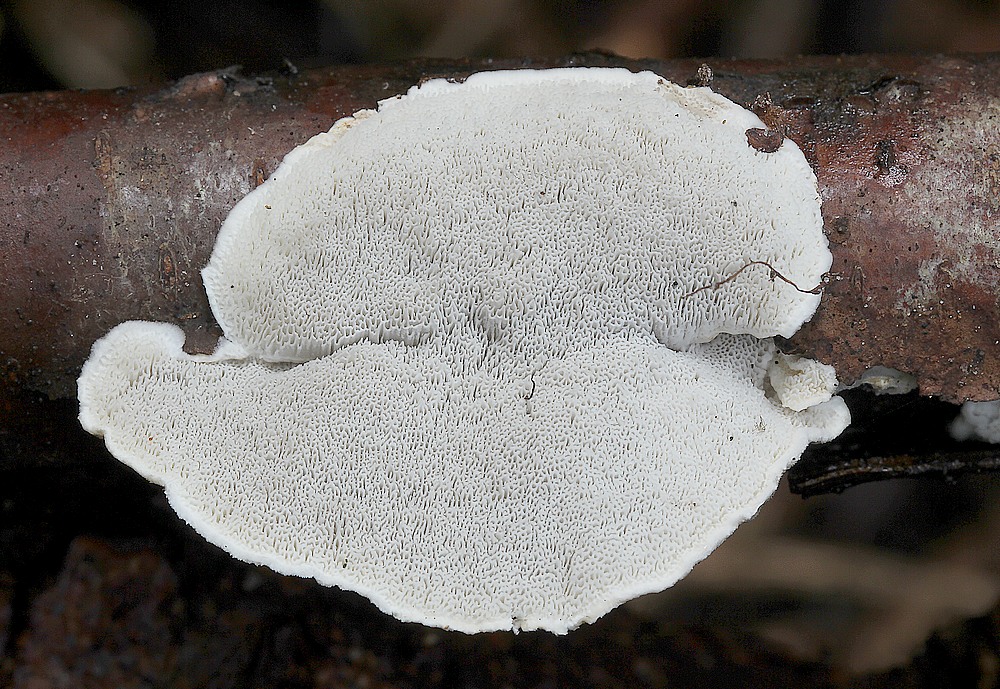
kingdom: Fungi
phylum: Basidiomycota
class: Agaricomycetes
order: Polyporales
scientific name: Polyporales
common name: poresvampordenen
